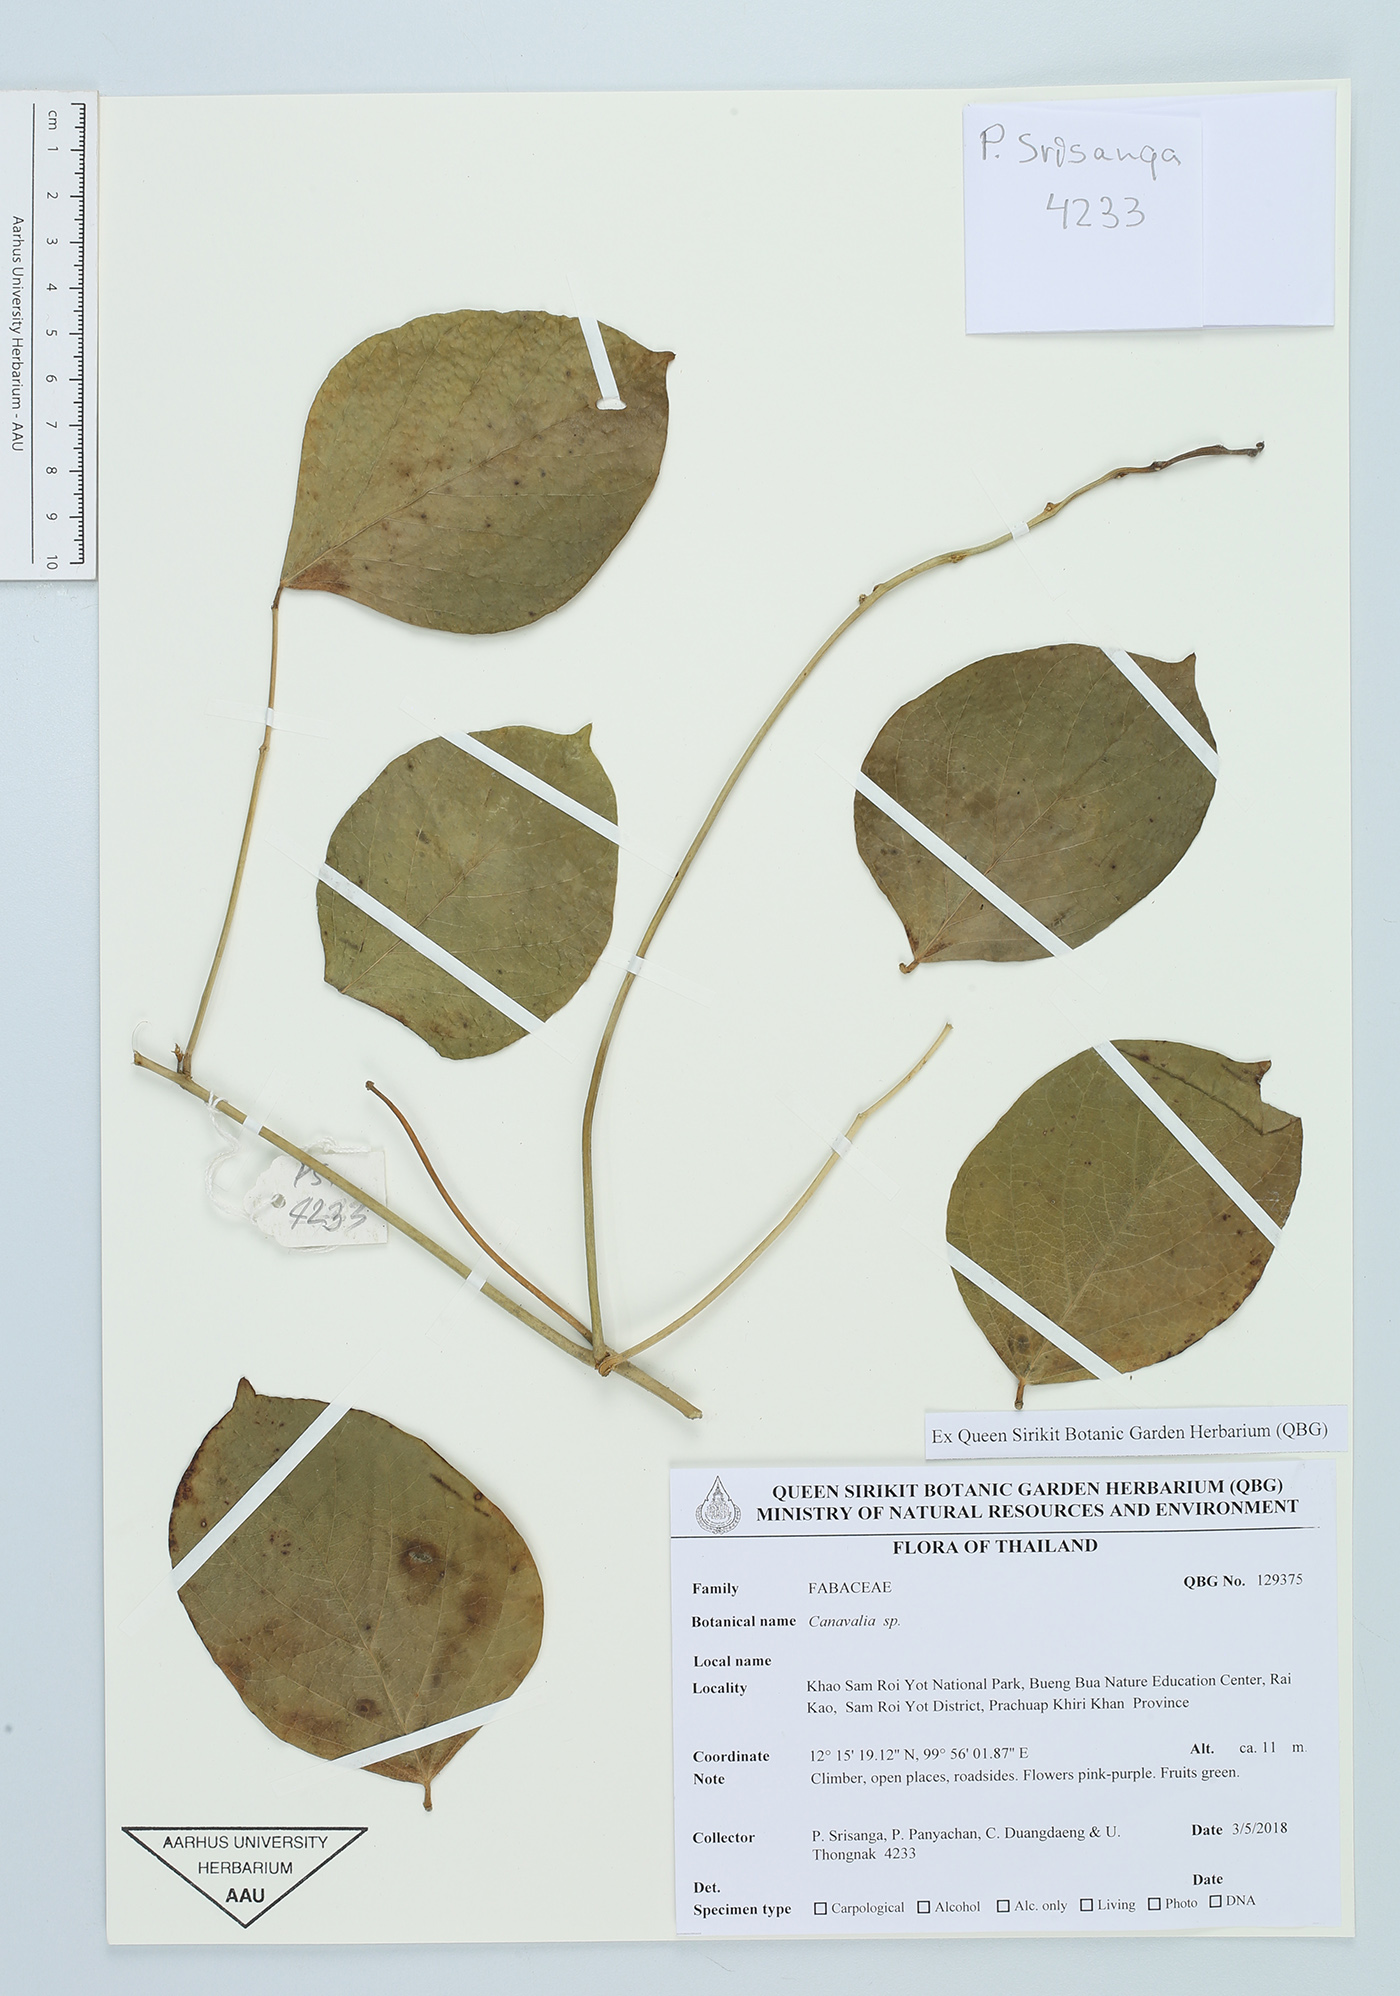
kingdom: Plantae
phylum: Tracheophyta
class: Magnoliopsida
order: Fabales
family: Fabaceae
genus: Canavalia
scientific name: Canavalia
